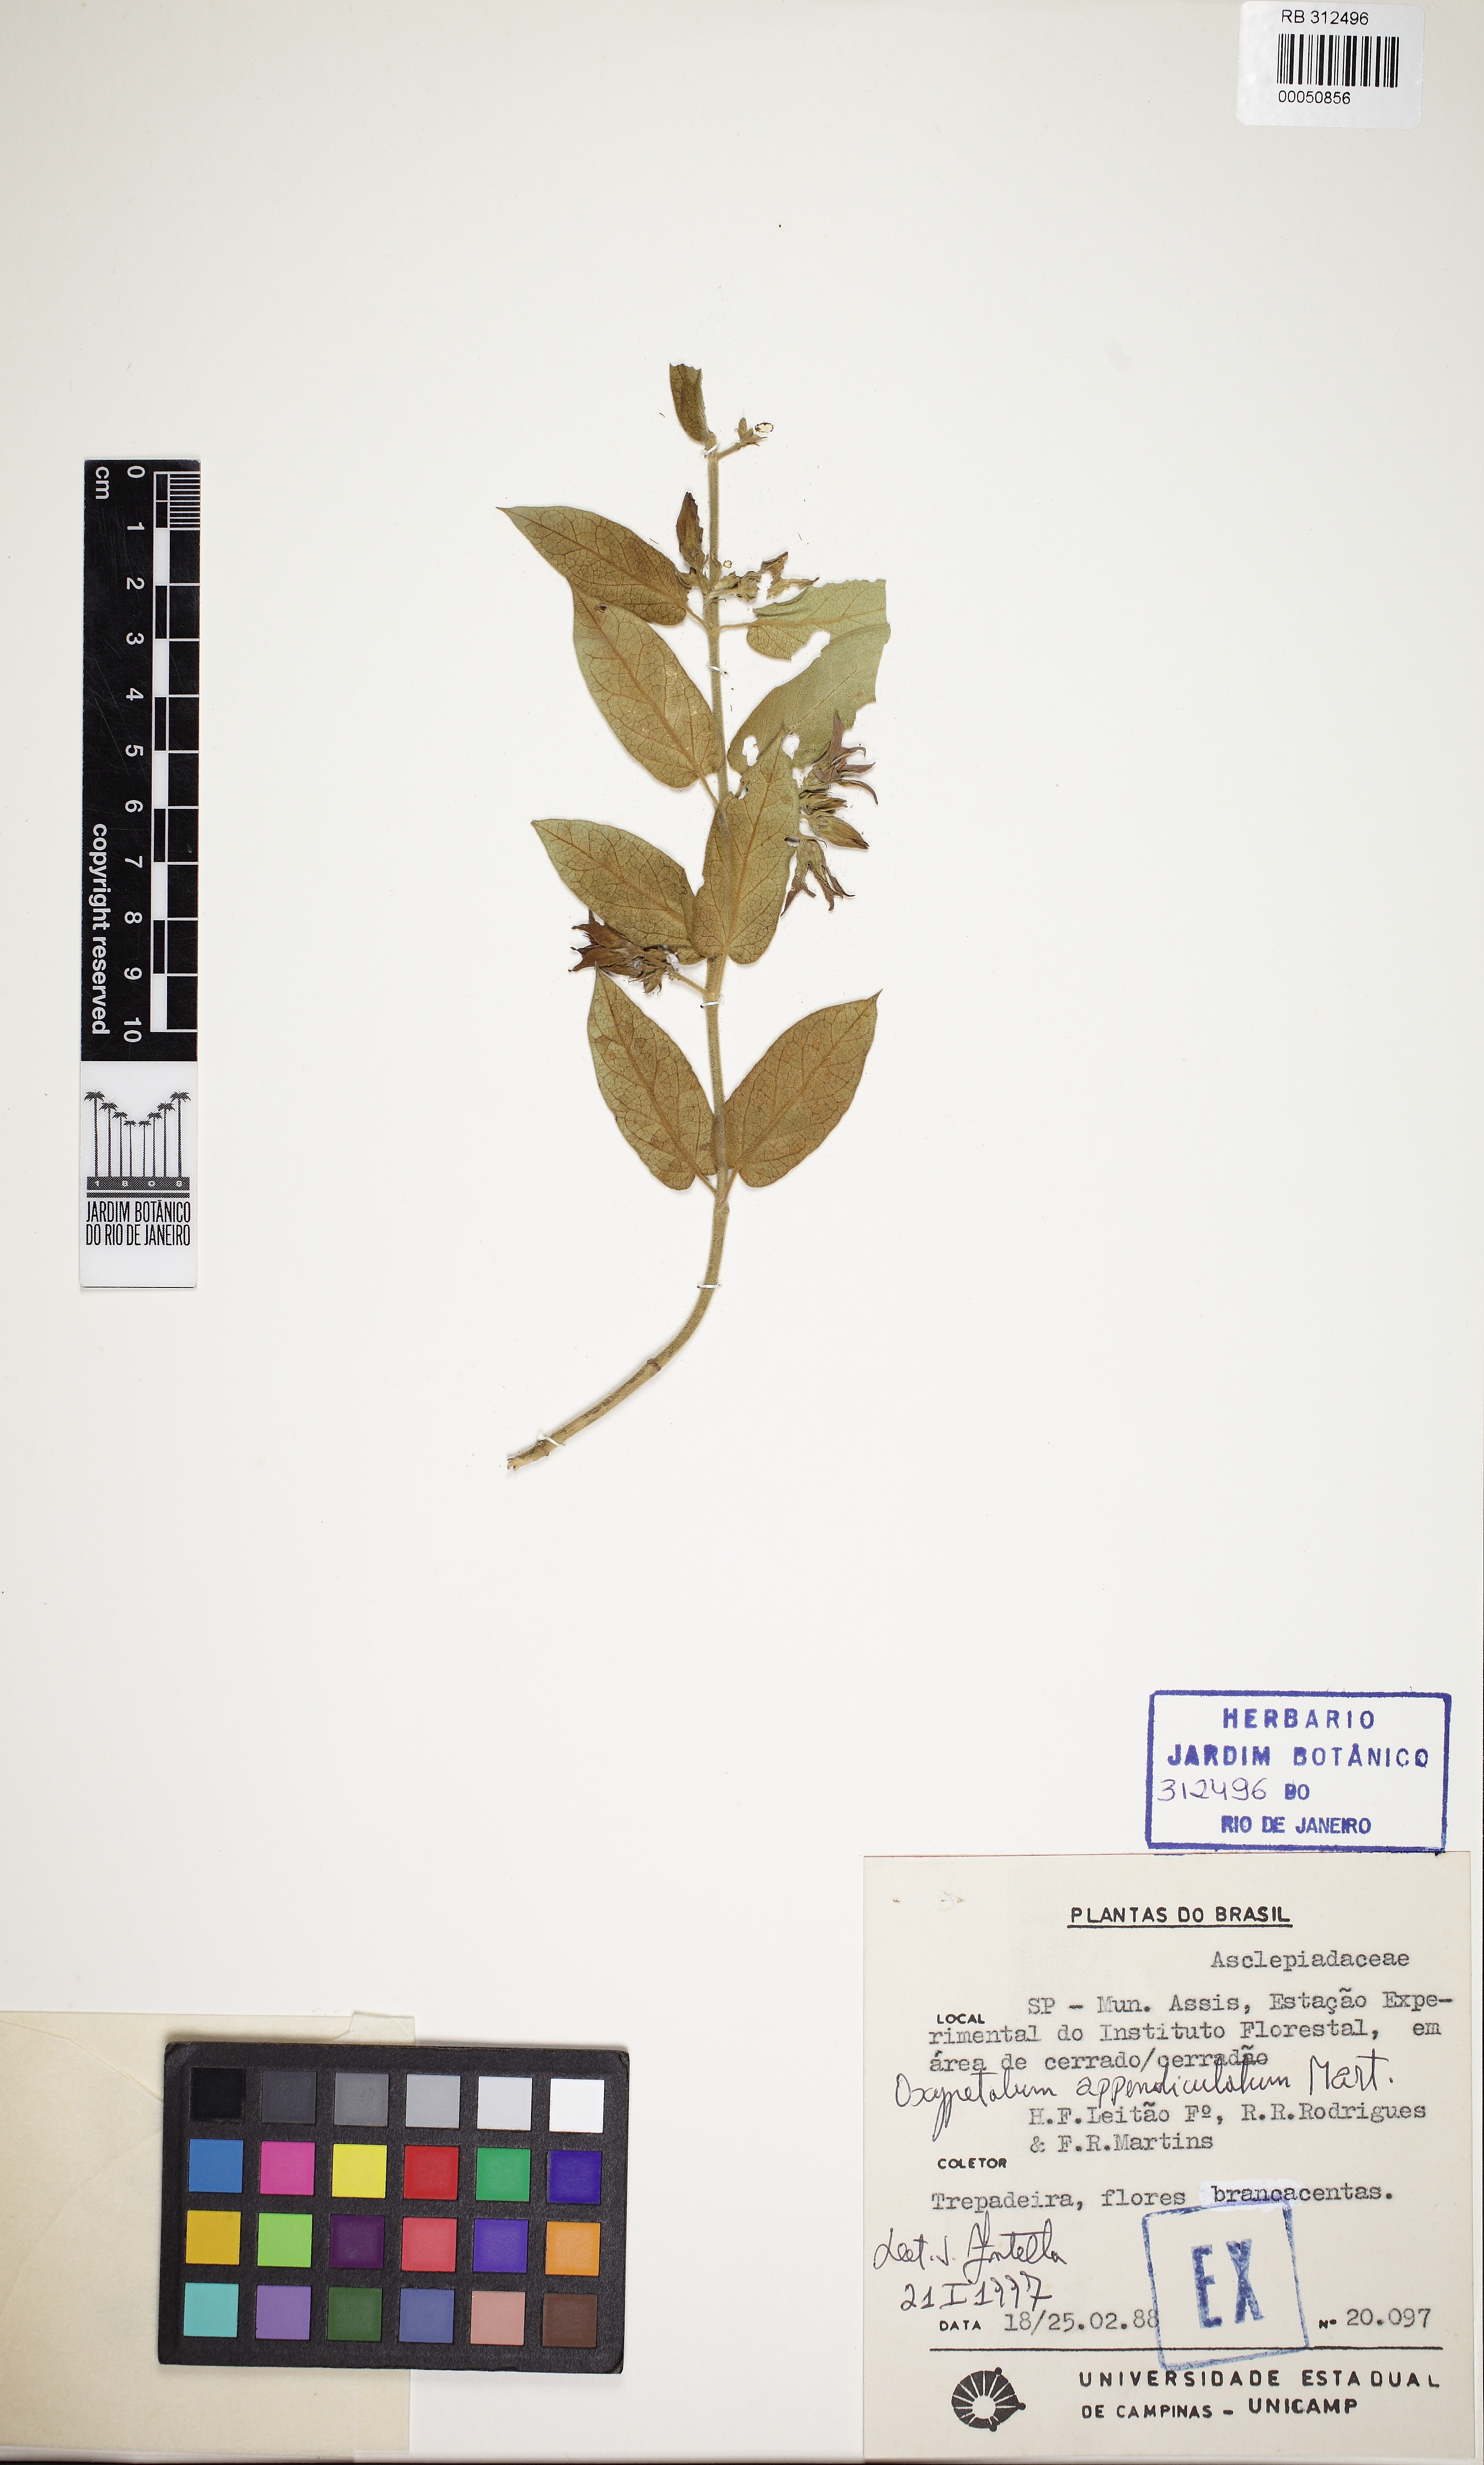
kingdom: Plantae
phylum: Tracheophyta
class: Magnoliopsida
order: Gentianales
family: Apocynaceae
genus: Oxypetalum
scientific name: Oxypetalum appendiculatum
